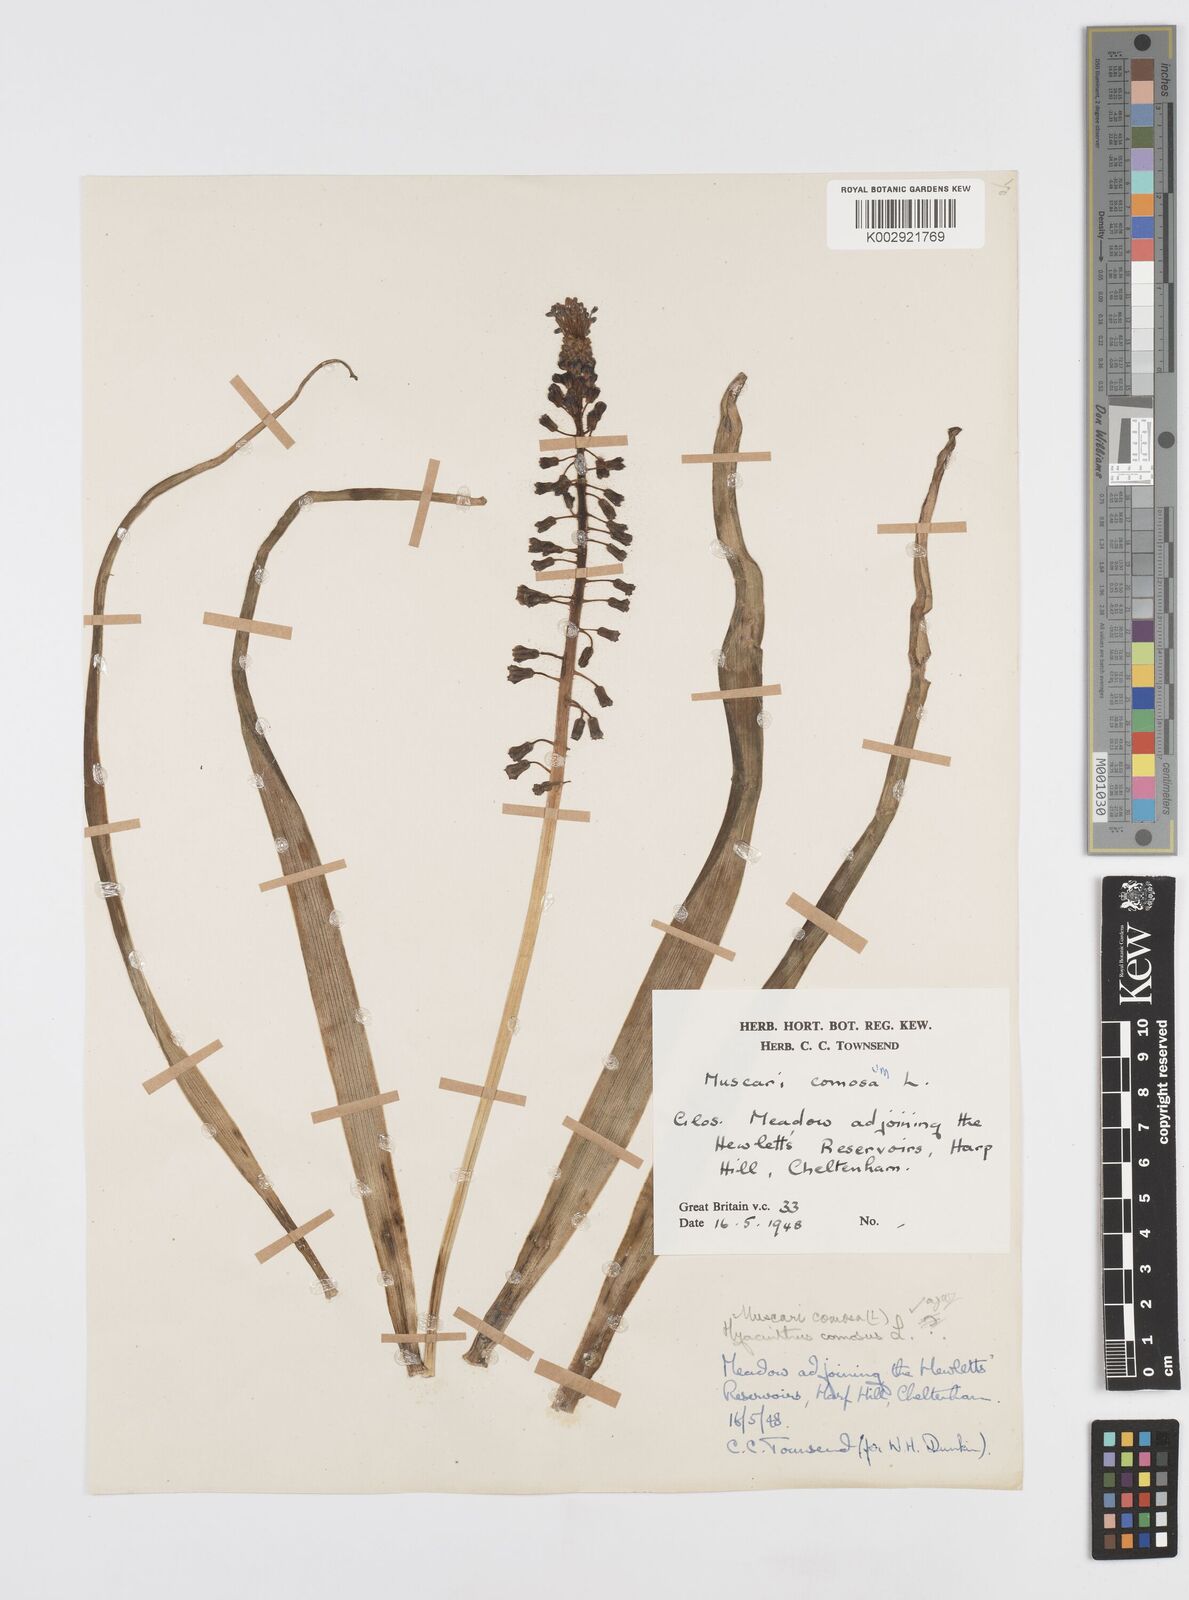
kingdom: Plantae
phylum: Tracheophyta
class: Liliopsida
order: Asparagales
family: Asparagaceae
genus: Muscari
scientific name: Muscari comosum
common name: Tassel hyacinth
